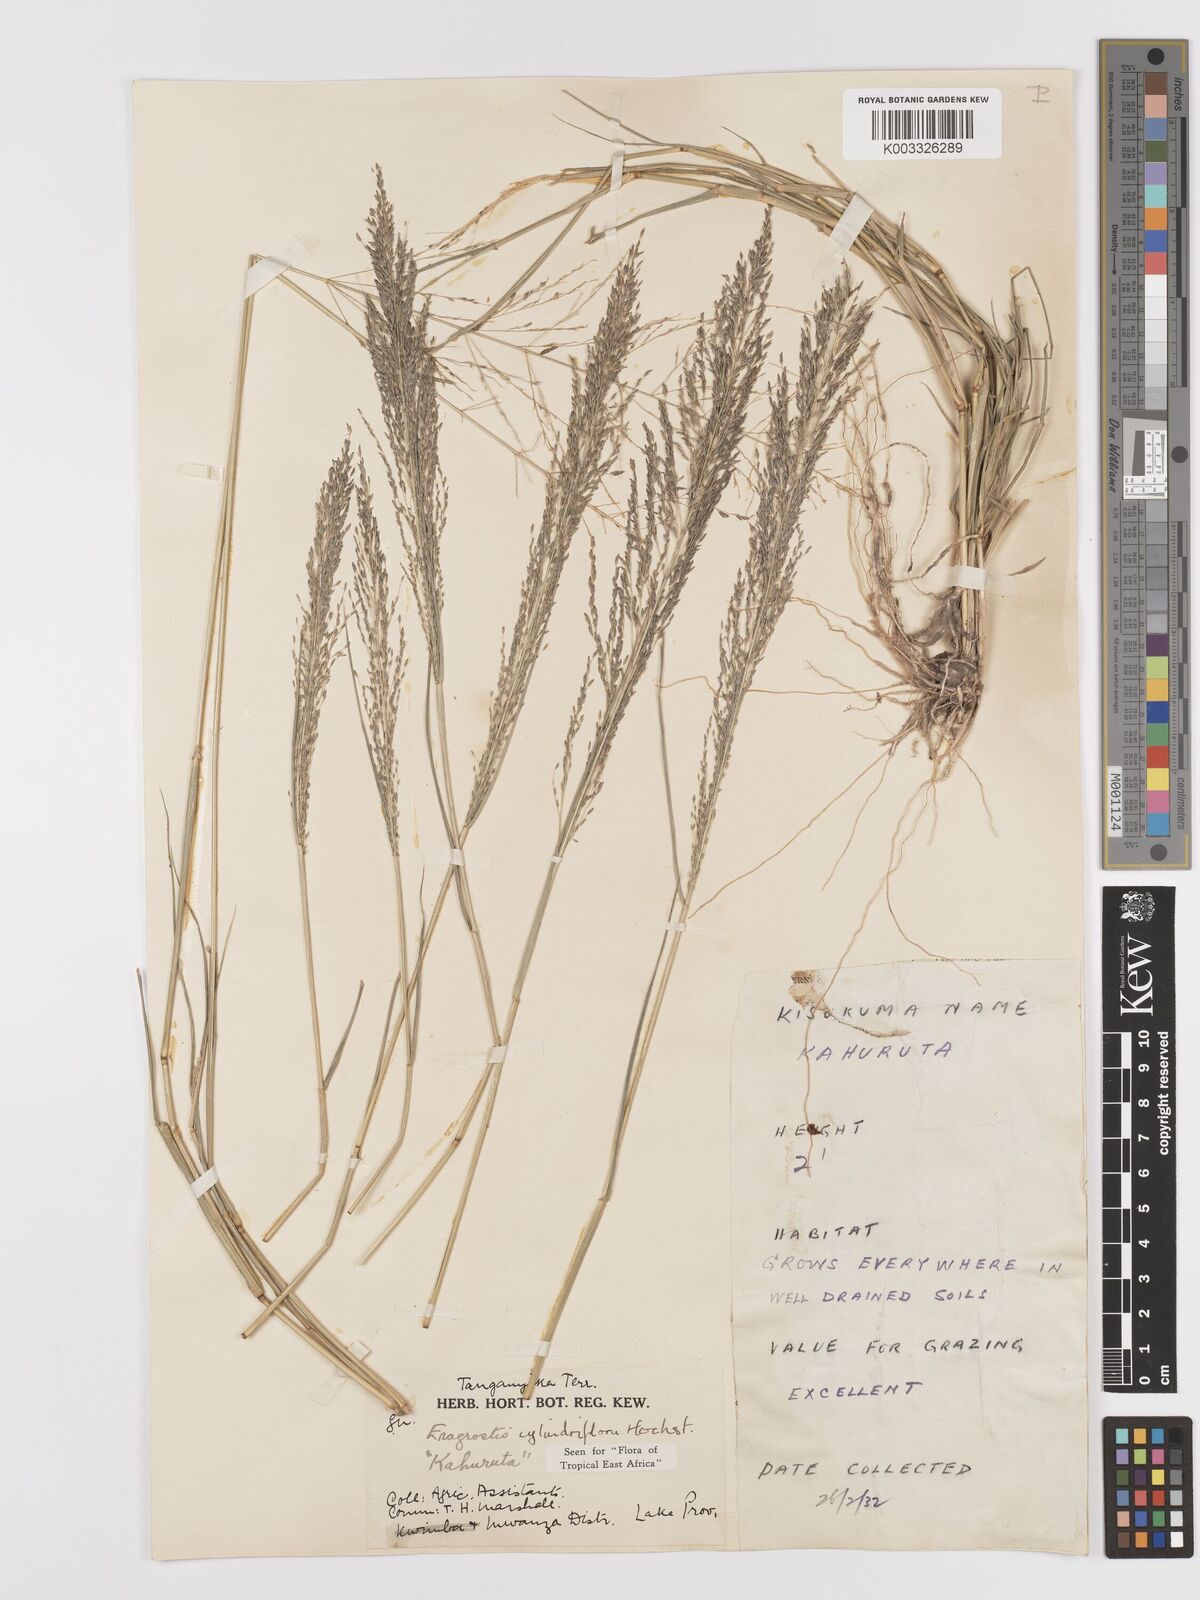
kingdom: Plantae
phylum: Tracheophyta
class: Liliopsida
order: Poales
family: Poaceae
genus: Eragrostis
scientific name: Eragrostis cylindriflora
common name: Cylinderflower lovegrass
